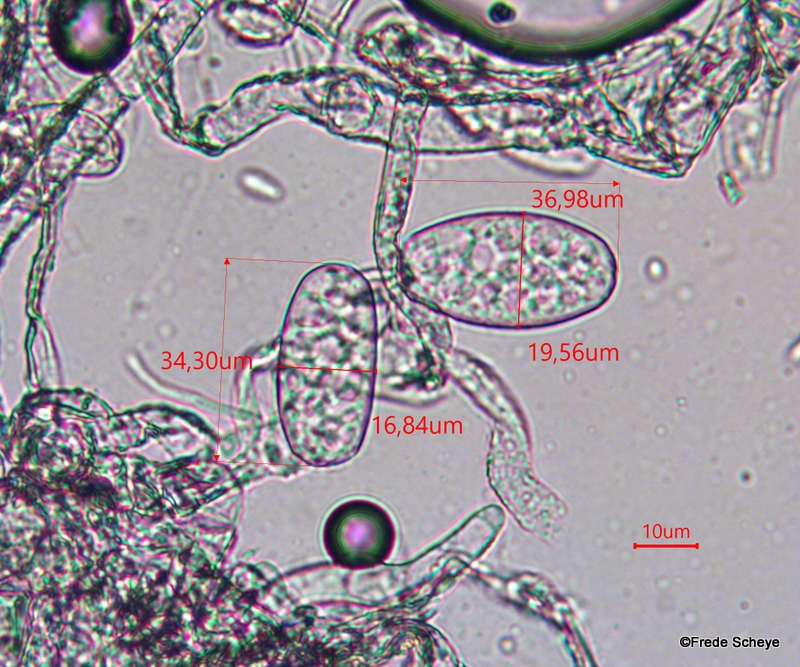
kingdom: Fungi
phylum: Ascomycota
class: Leotiomycetes
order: Helotiales
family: Erysiphaceae
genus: Golovinomyces
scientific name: Golovinomyces cichoracearum
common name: kurvblomst-meldug
